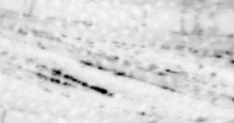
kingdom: Animalia
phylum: Chordata
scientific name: Chordata
